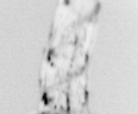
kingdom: Animalia
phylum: Arthropoda
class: Copepoda
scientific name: Copepoda
